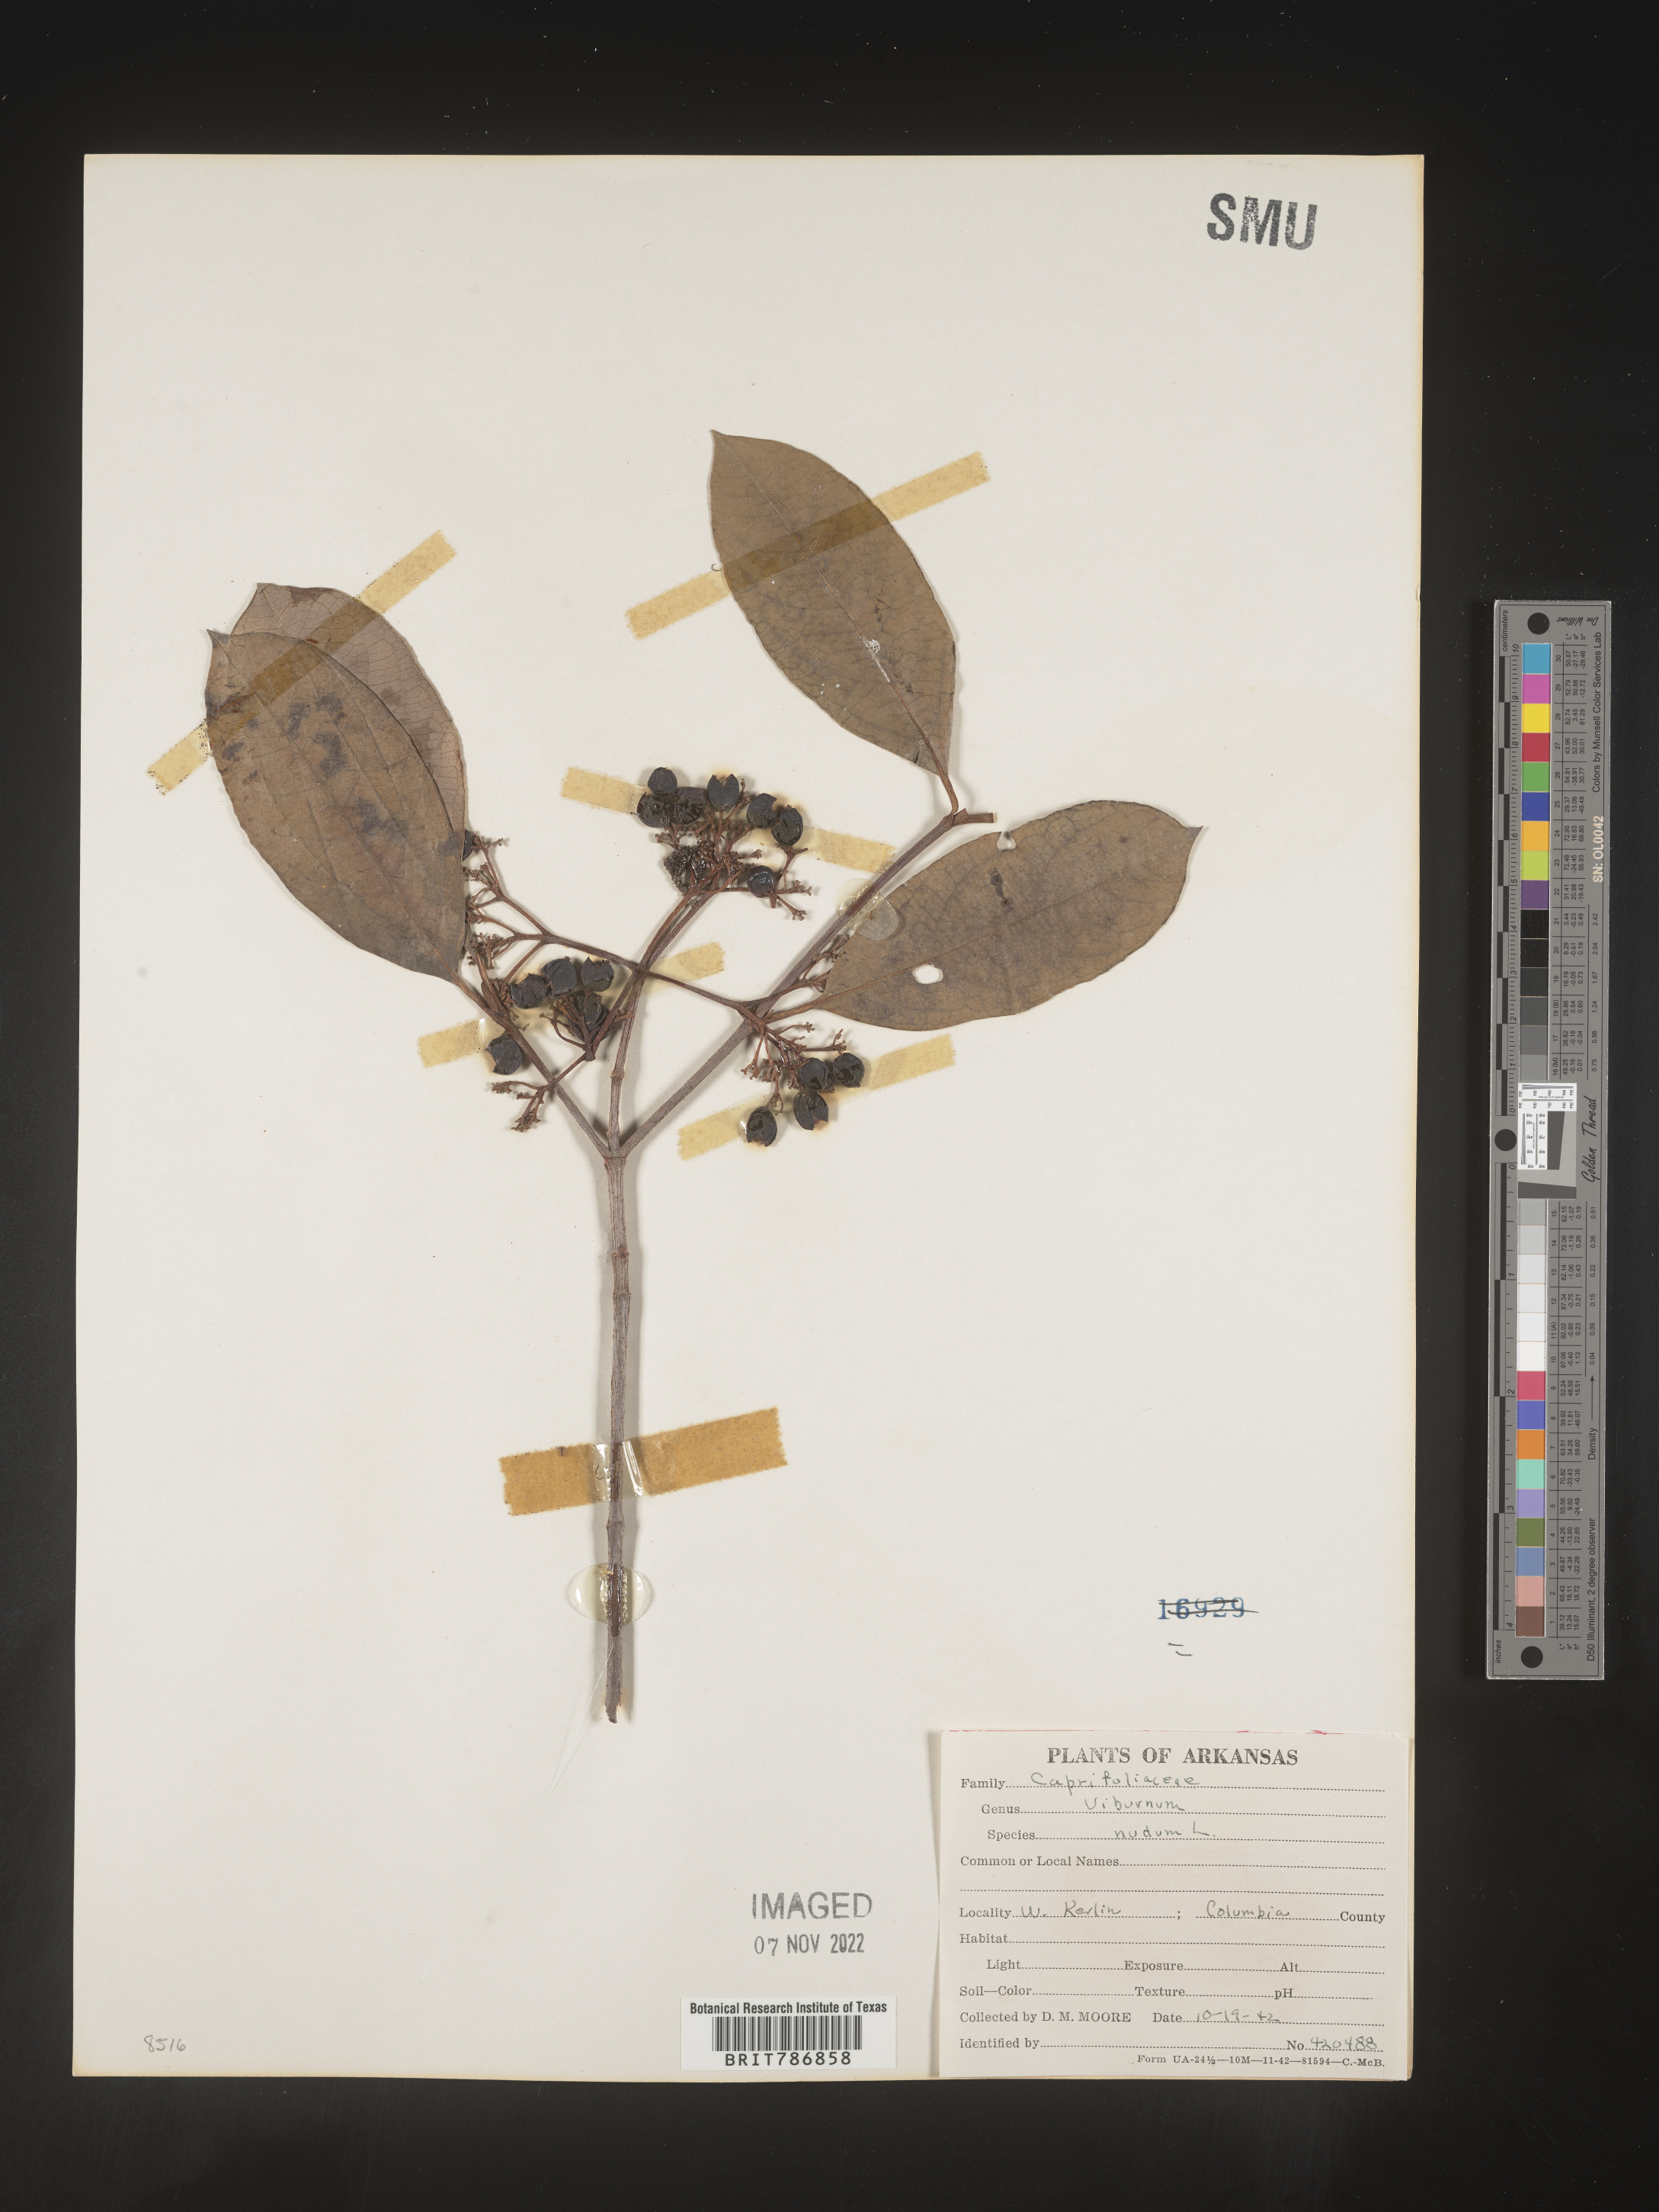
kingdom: Plantae
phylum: Tracheophyta
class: Magnoliopsida
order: Dipsacales
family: Viburnaceae
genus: Viburnum
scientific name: Viburnum nudum
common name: Possum haw
